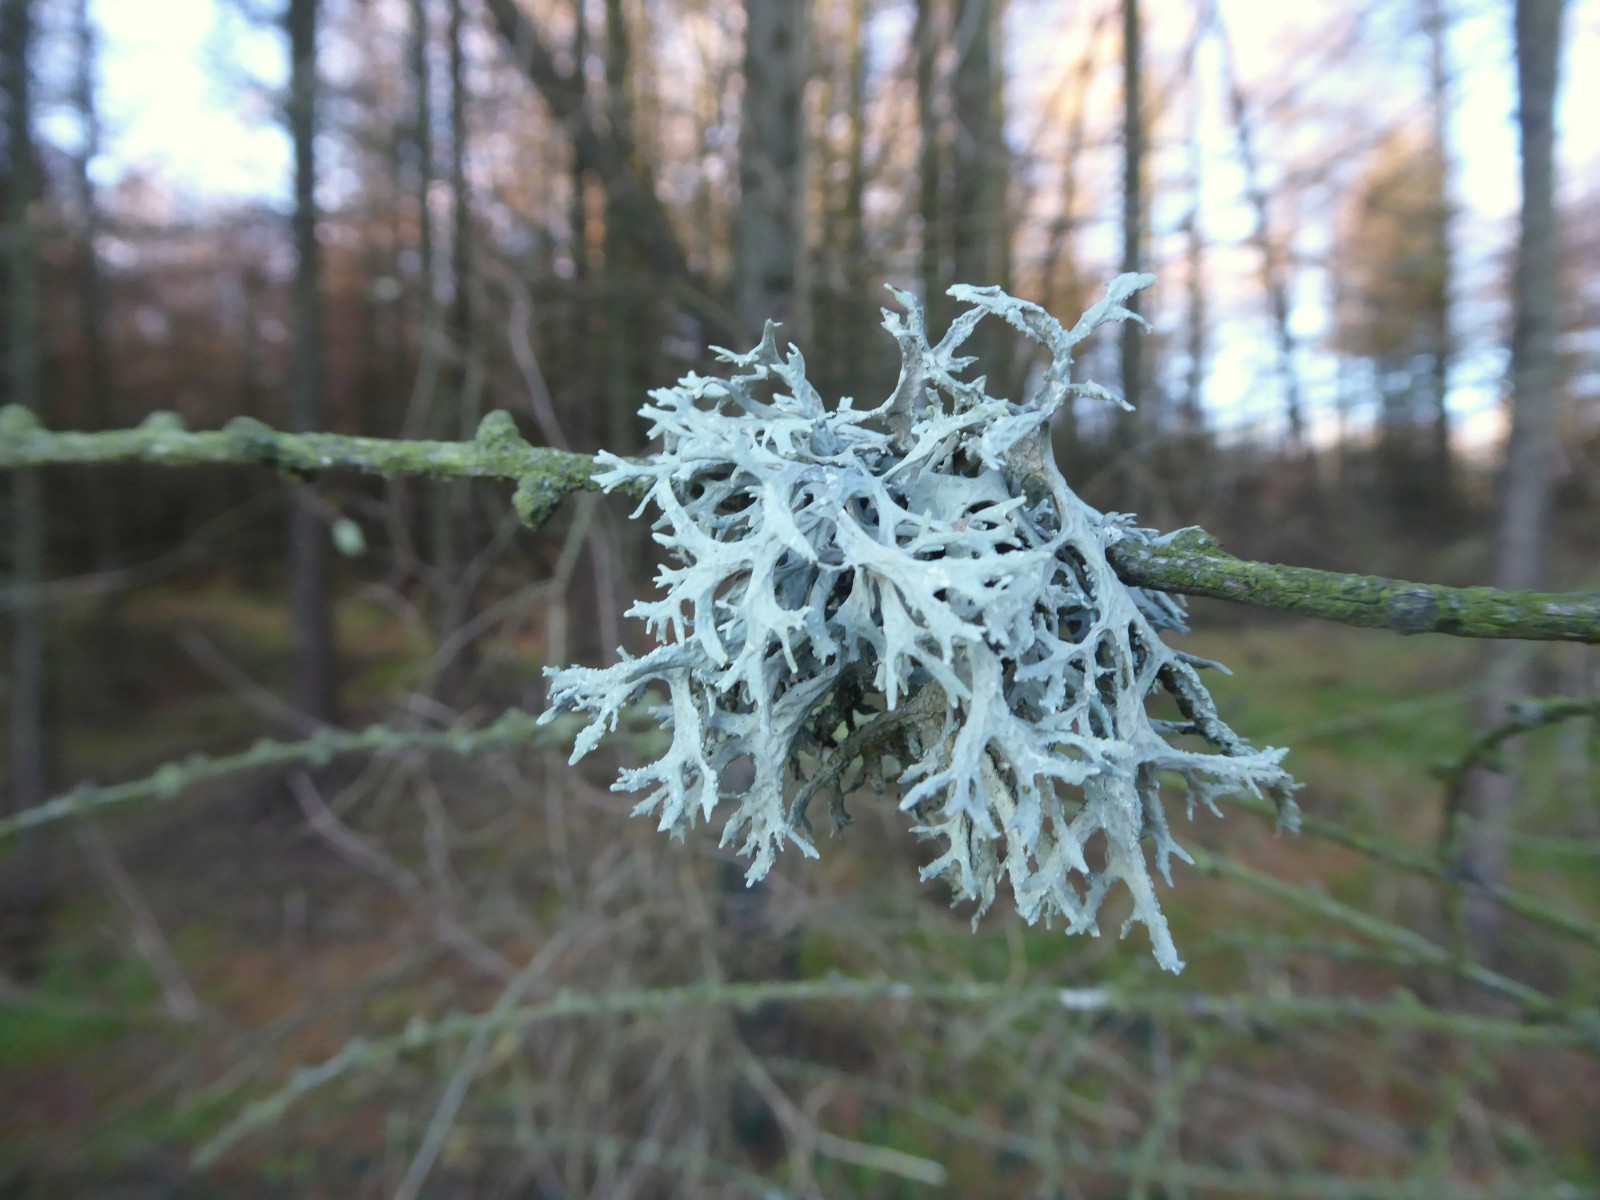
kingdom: Fungi
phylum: Ascomycota
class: Lecanoromycetes
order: Lecanorales
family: Parmeliaceae
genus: Evernia
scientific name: Evernia prunastri
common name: almindelig slåenlav
